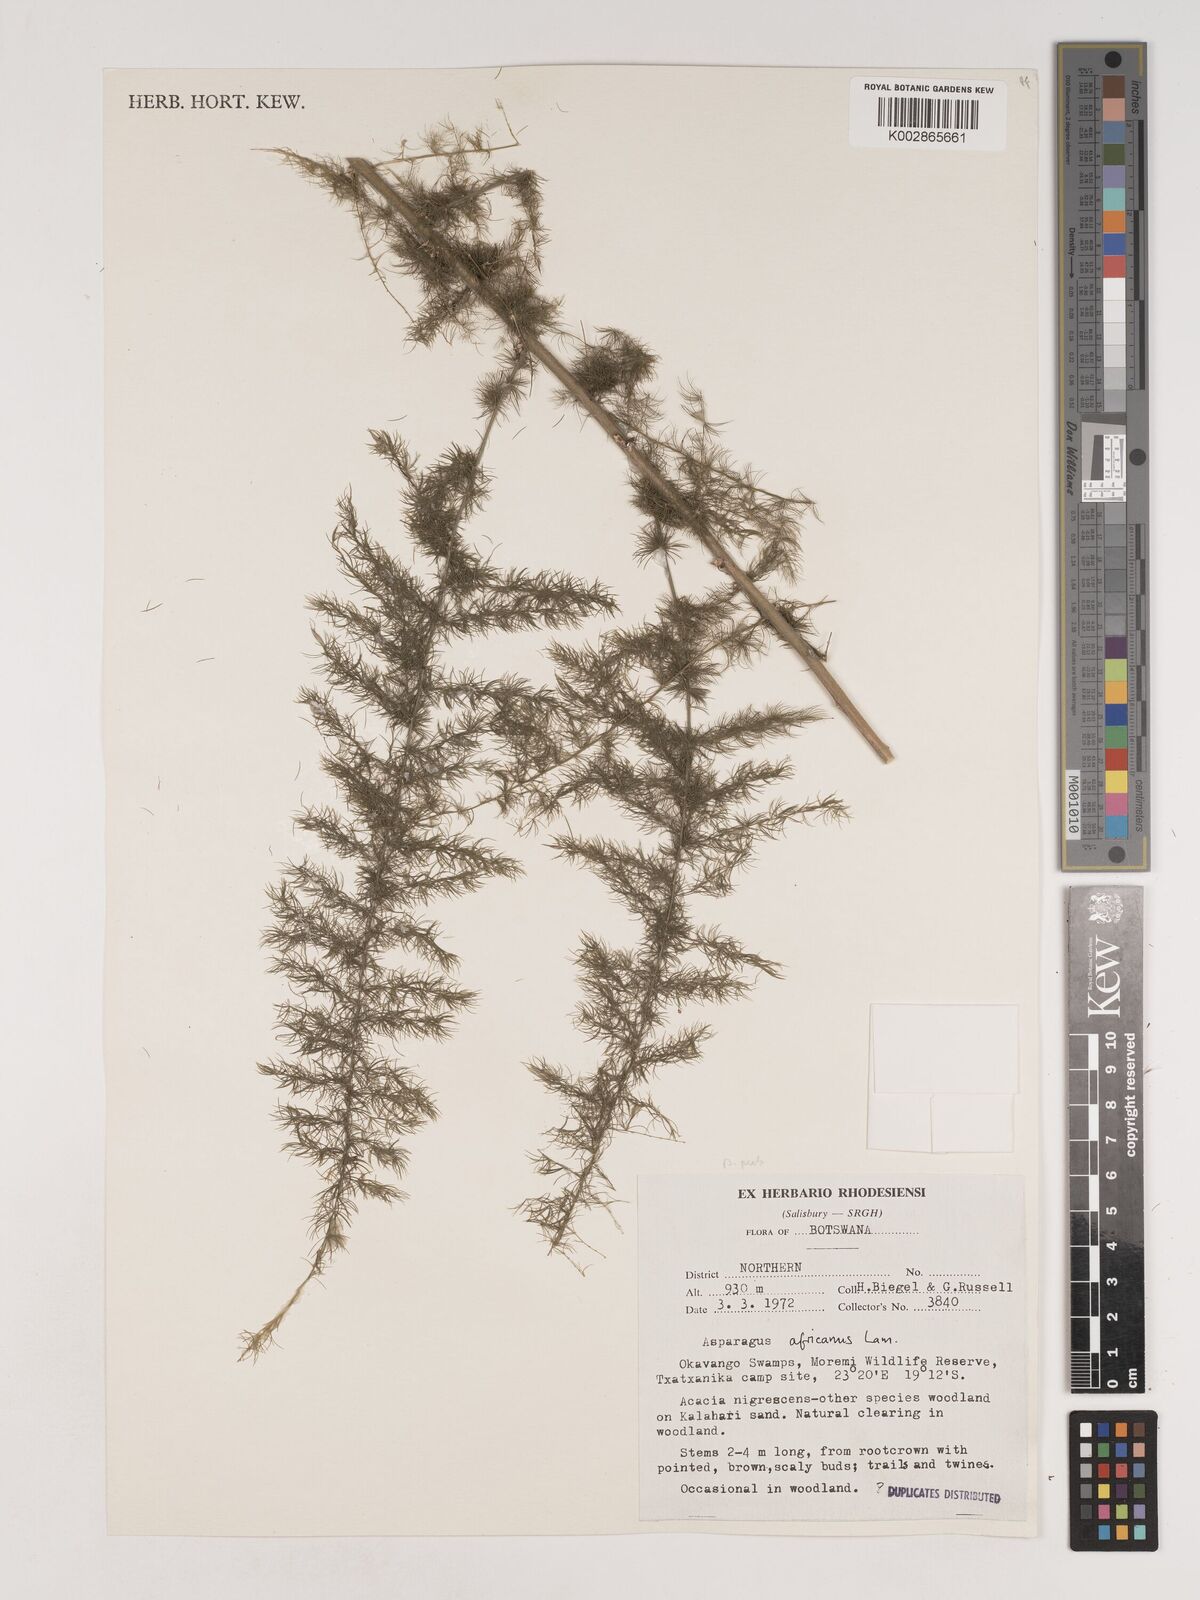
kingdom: Plantae
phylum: Tracheophyta
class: Liliopsida
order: Asparagales
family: Asparagaceae
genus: Asparagus
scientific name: Asparagus africanus
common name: Asparagus-fern
